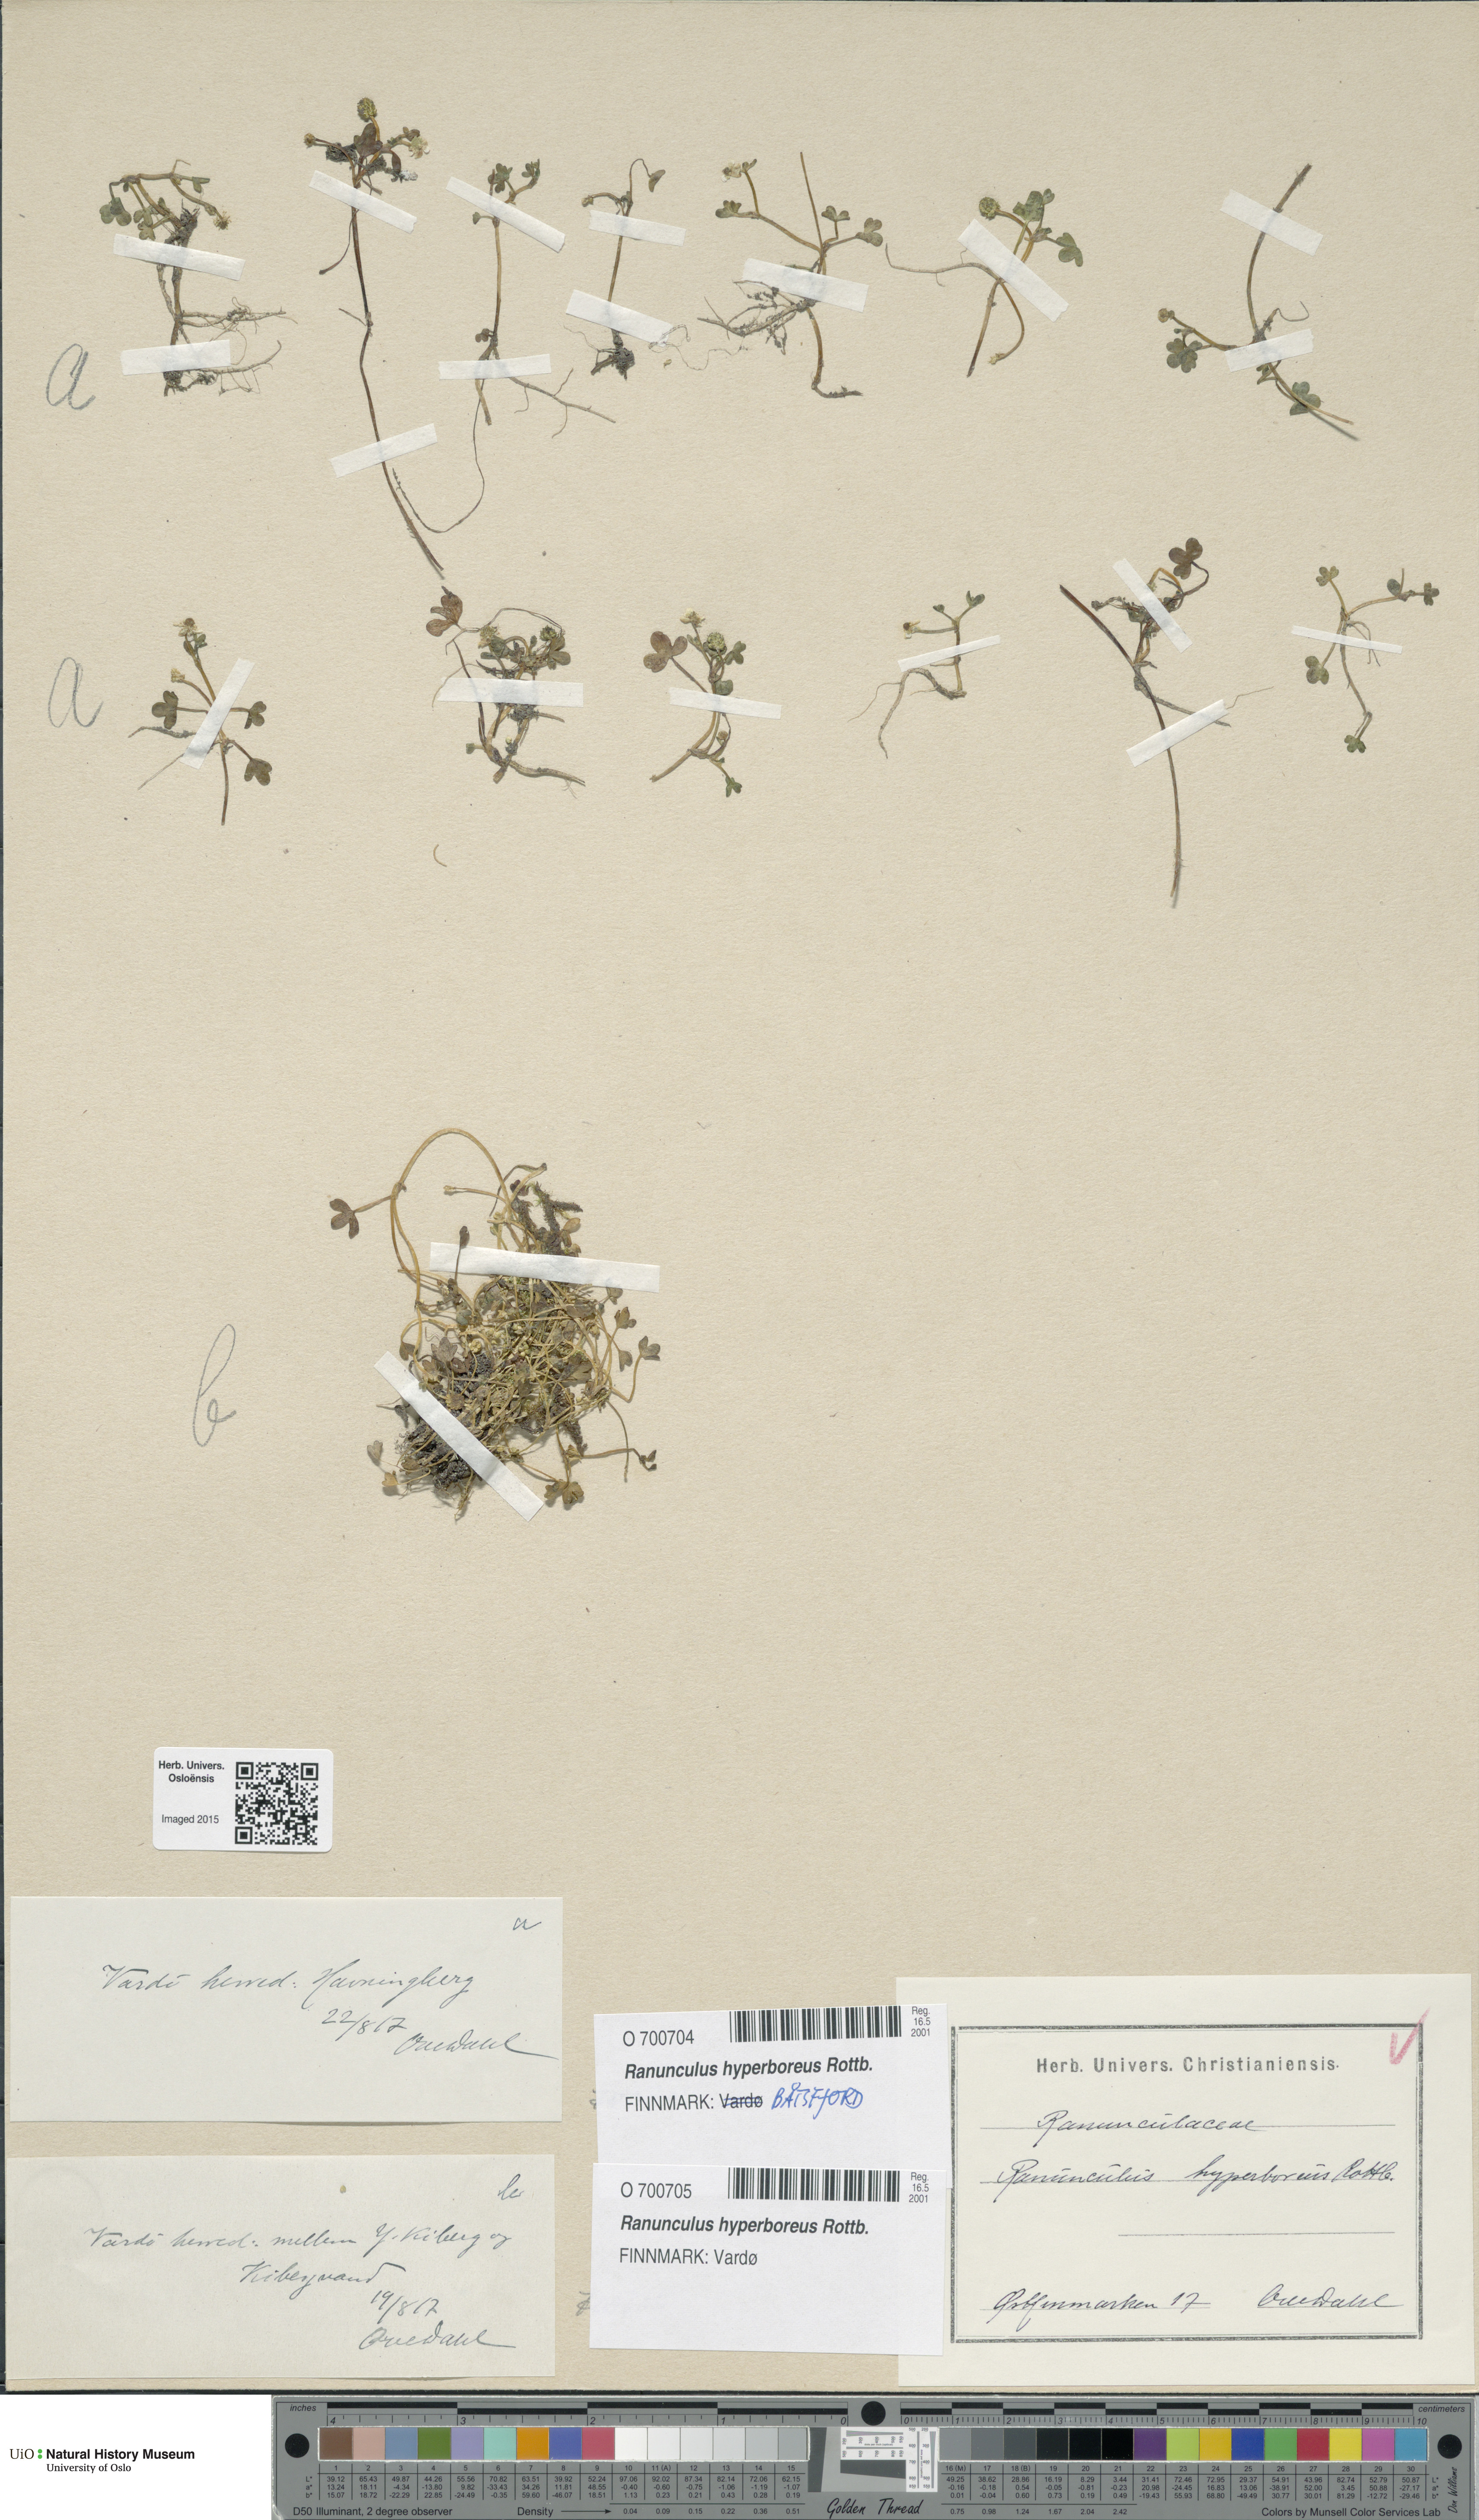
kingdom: Plantae
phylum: Tracheophyta
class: Magnoliopsida
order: Ranunculales
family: Ranunculaceae
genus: Ranunculus
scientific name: Ranunculus hyperboreus
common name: Arctic buttercup
